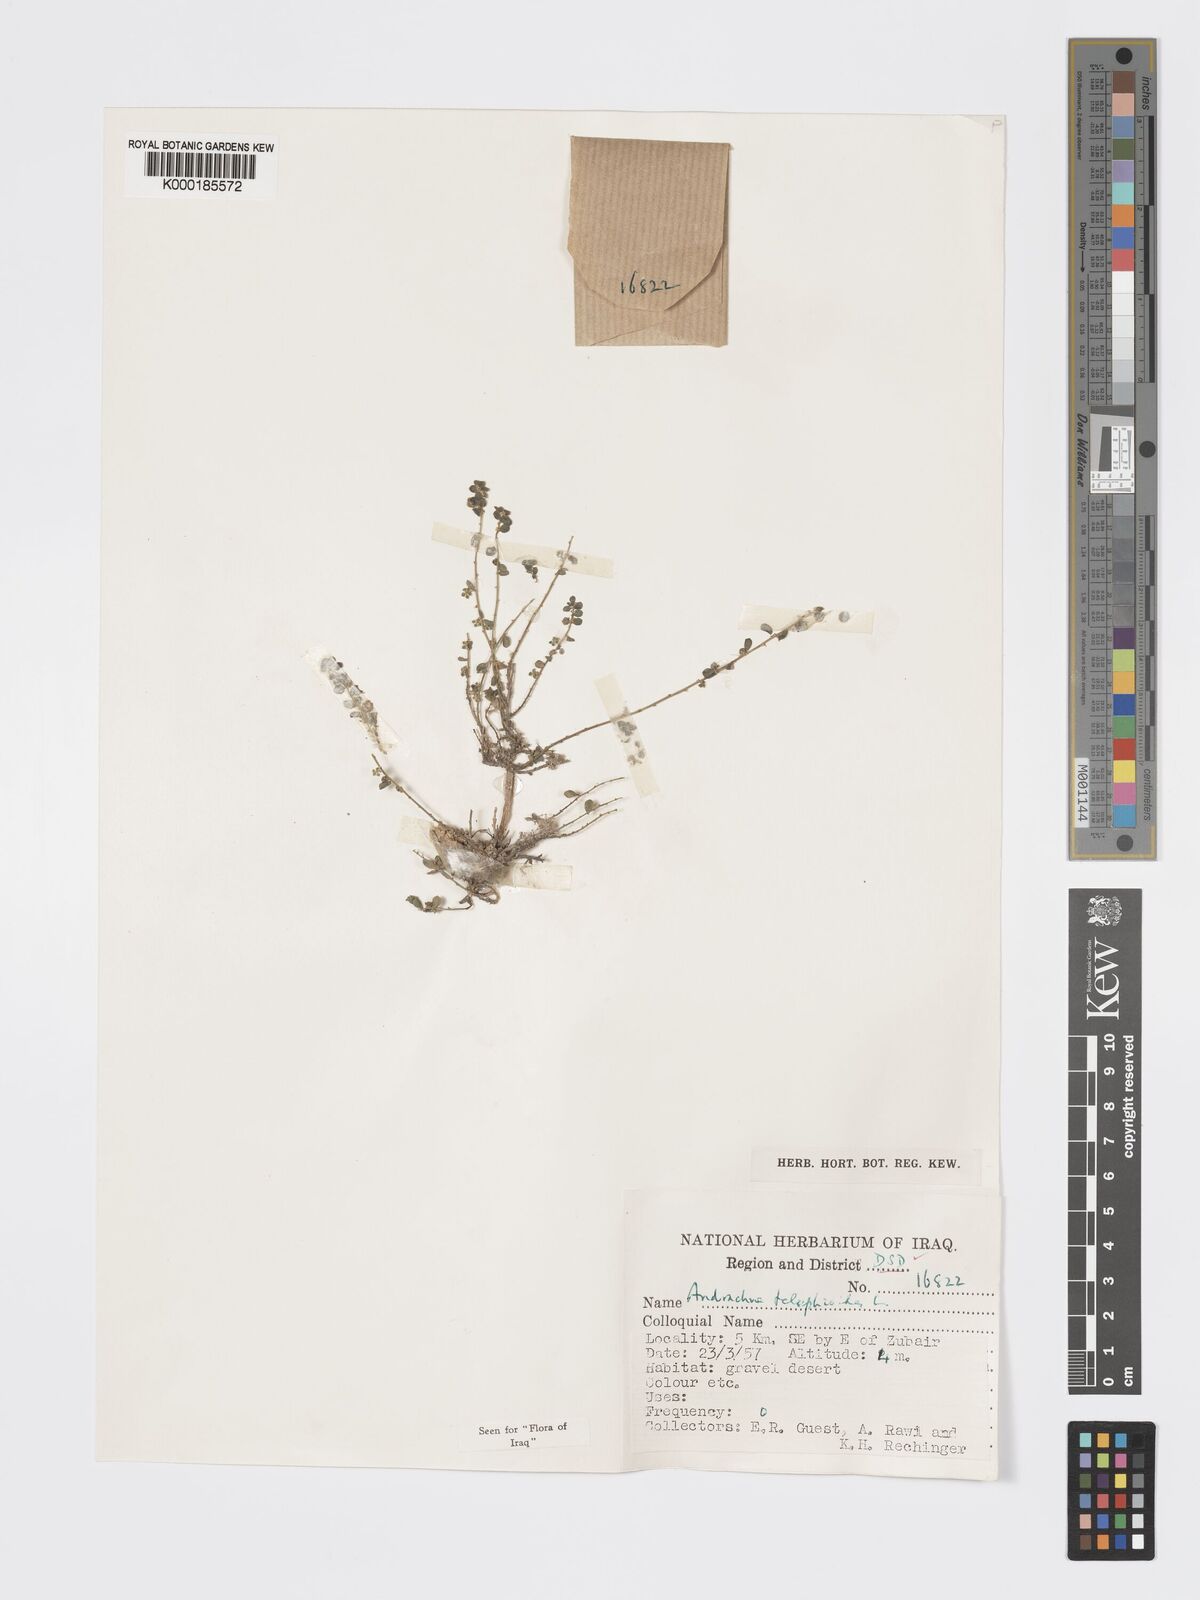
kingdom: Plantae
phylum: Tracheophyta
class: Magnoliopsida
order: Malpighiales
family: Phyllanthaceae
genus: Andrachne
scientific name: Andrachne telephioides
